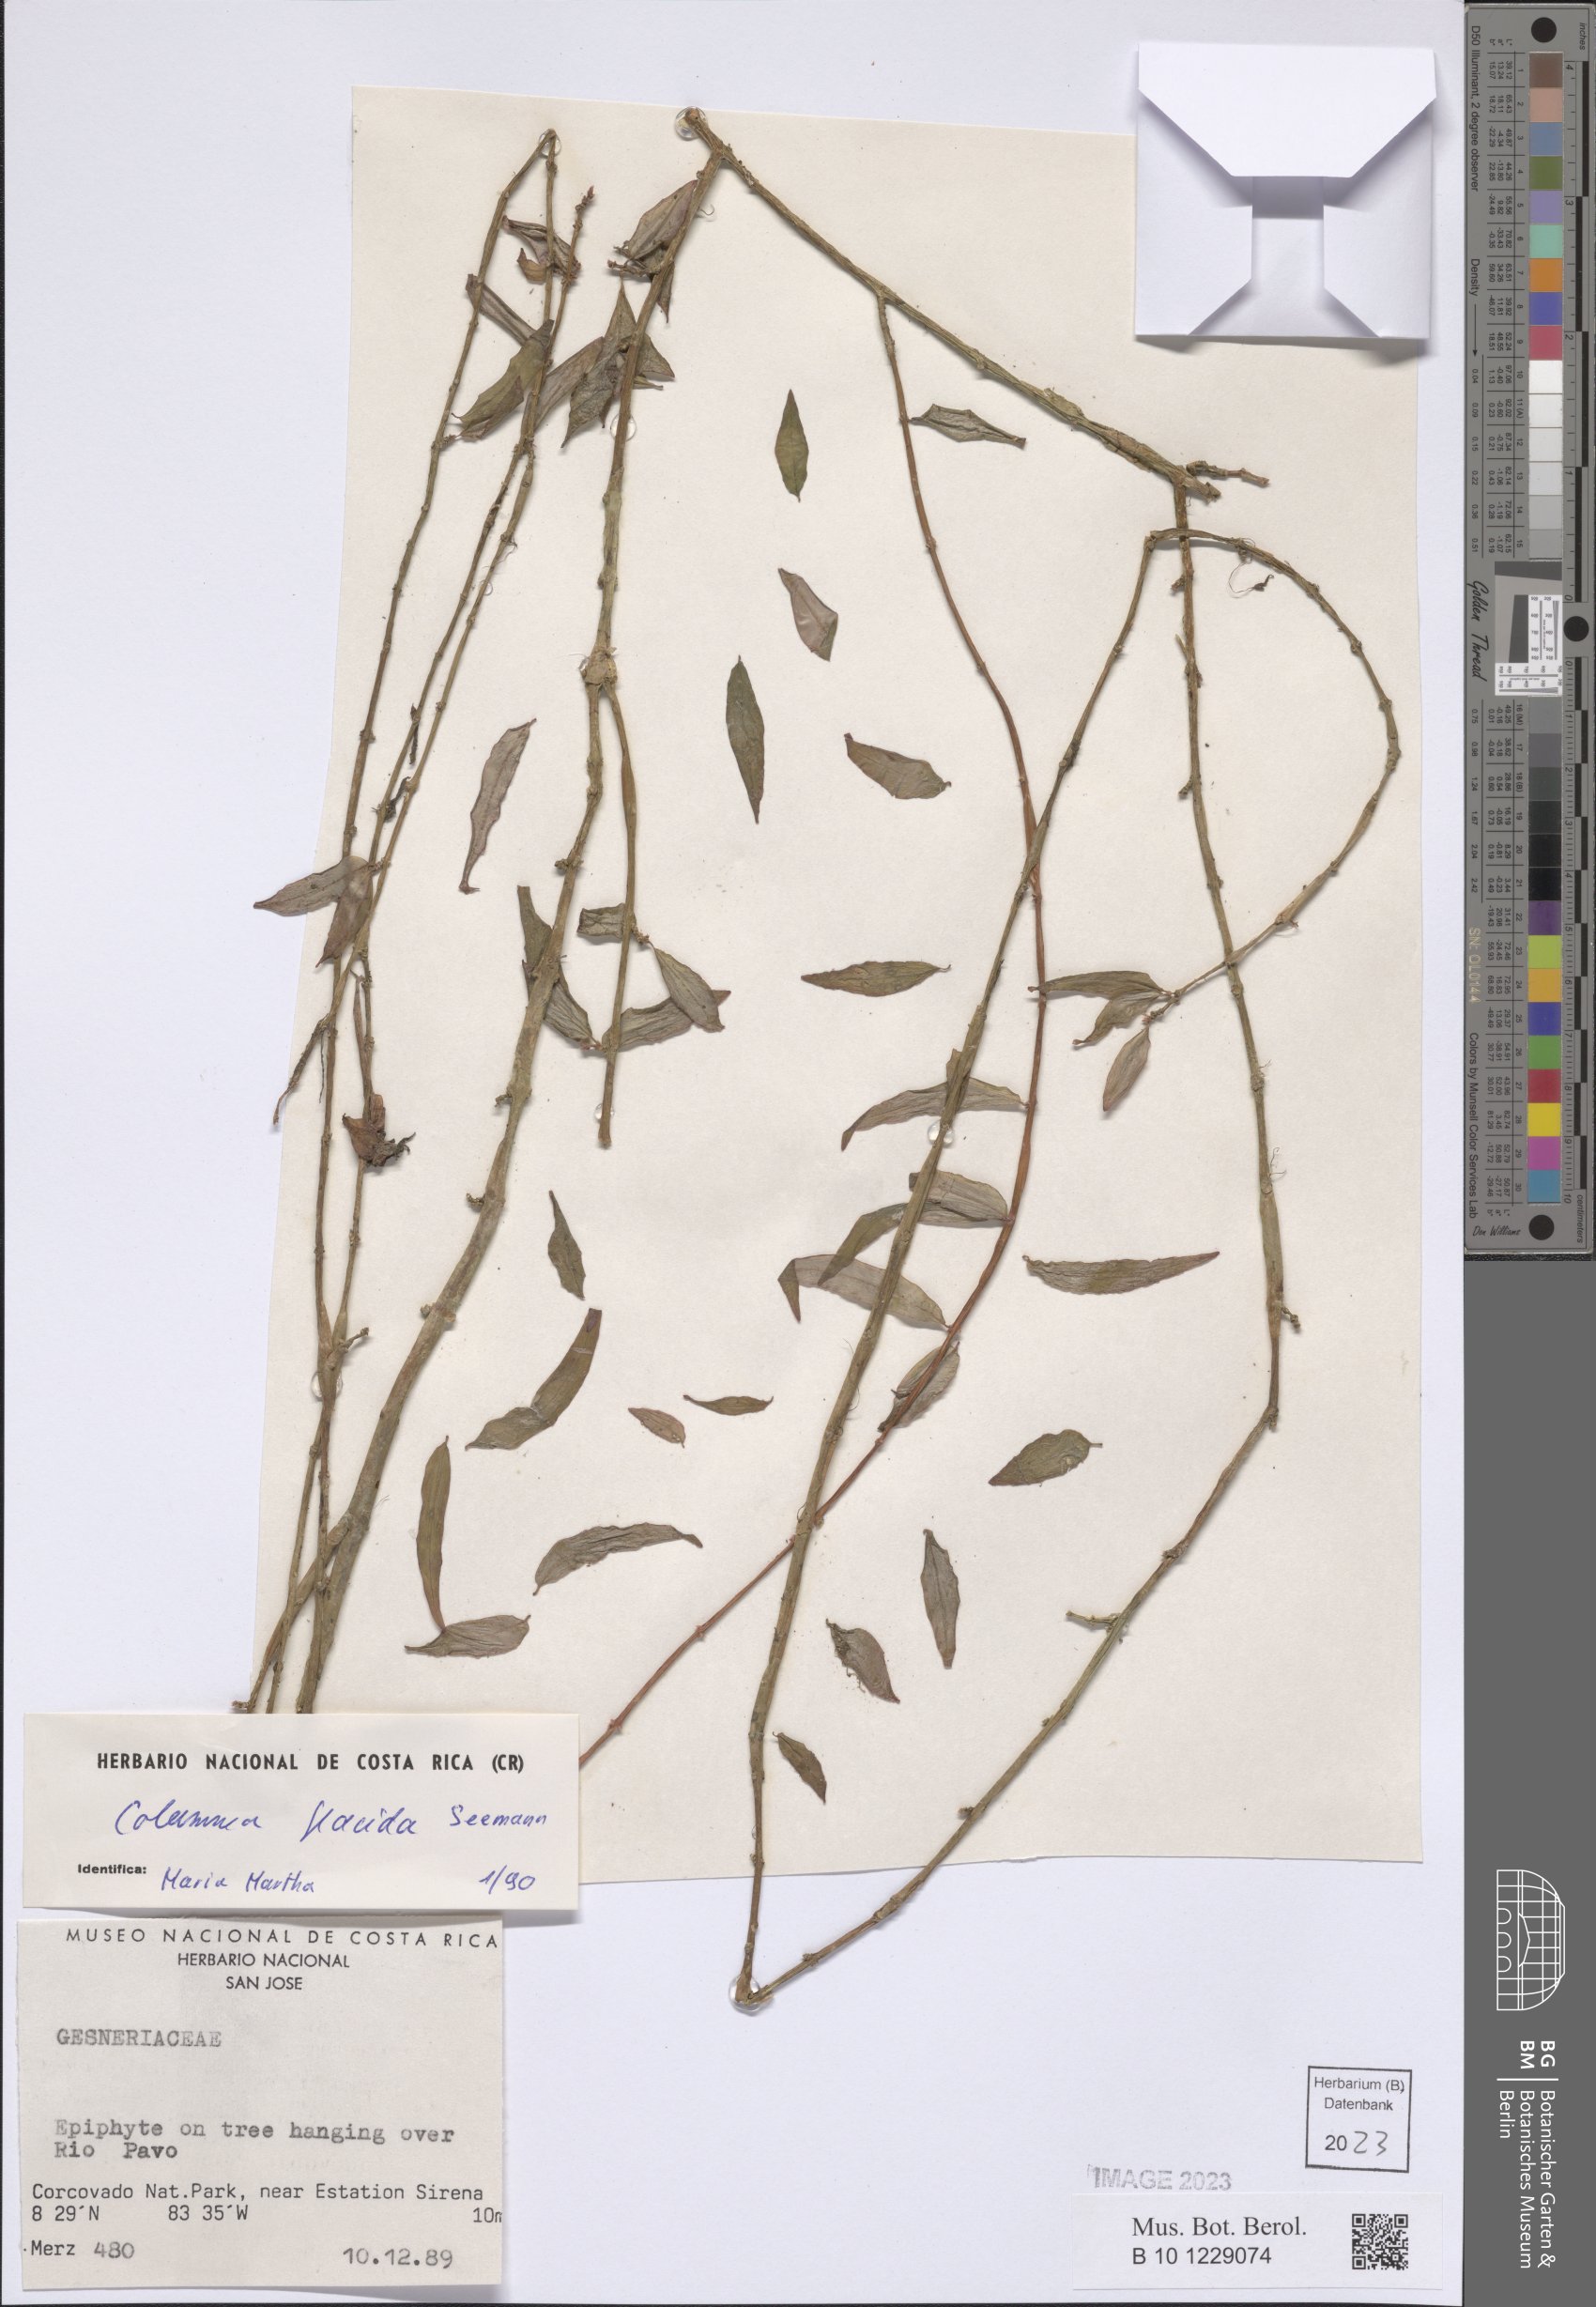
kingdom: Plantae
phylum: Tracheophyta
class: Magnoliopsida
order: Lamiales
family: Gesneriaceae
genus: Columnea
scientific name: Columnea flaccida
